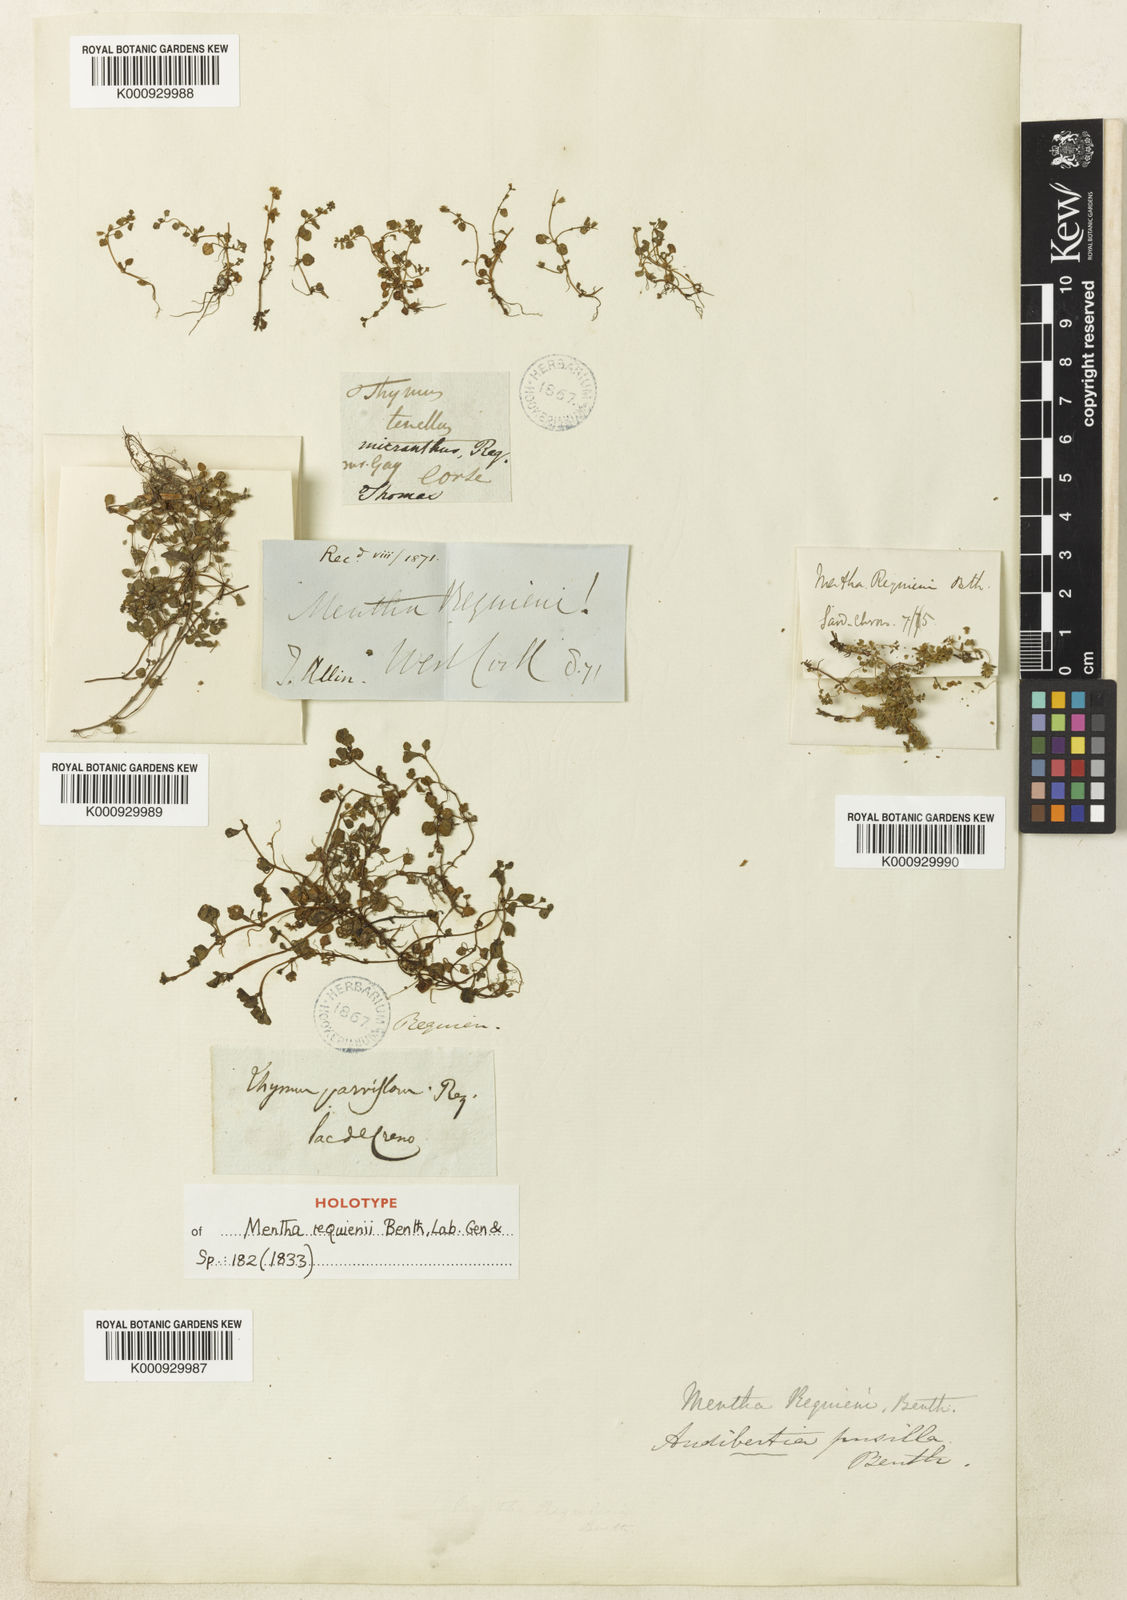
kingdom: Plantae
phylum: Tracheophyta
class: Magnoliopsida
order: Lamiales
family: Lamiaceae
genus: Mentha
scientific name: Mentha requienii
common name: Corsican mint
